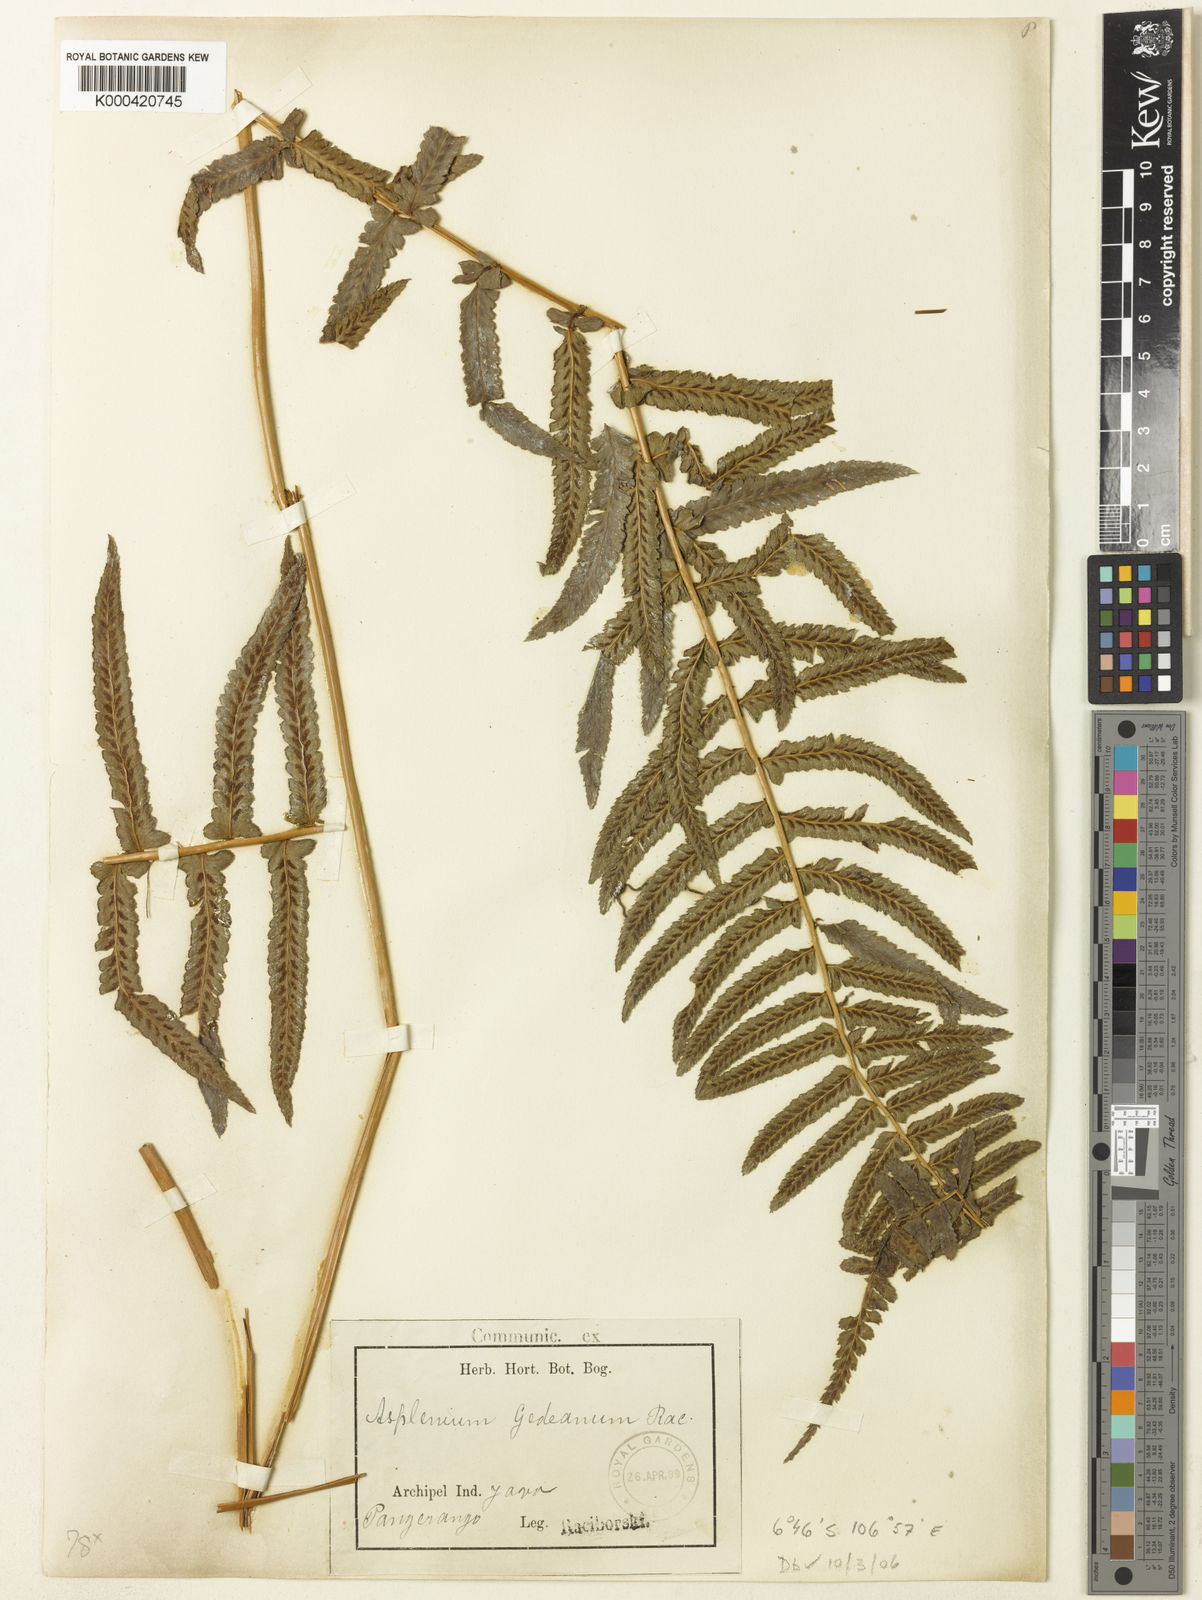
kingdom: Plantae
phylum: Tracheophyta
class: Polypodiopsida
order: Polypodiales
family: Athyriaceae
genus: Athyrium
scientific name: Athyrium atratum
